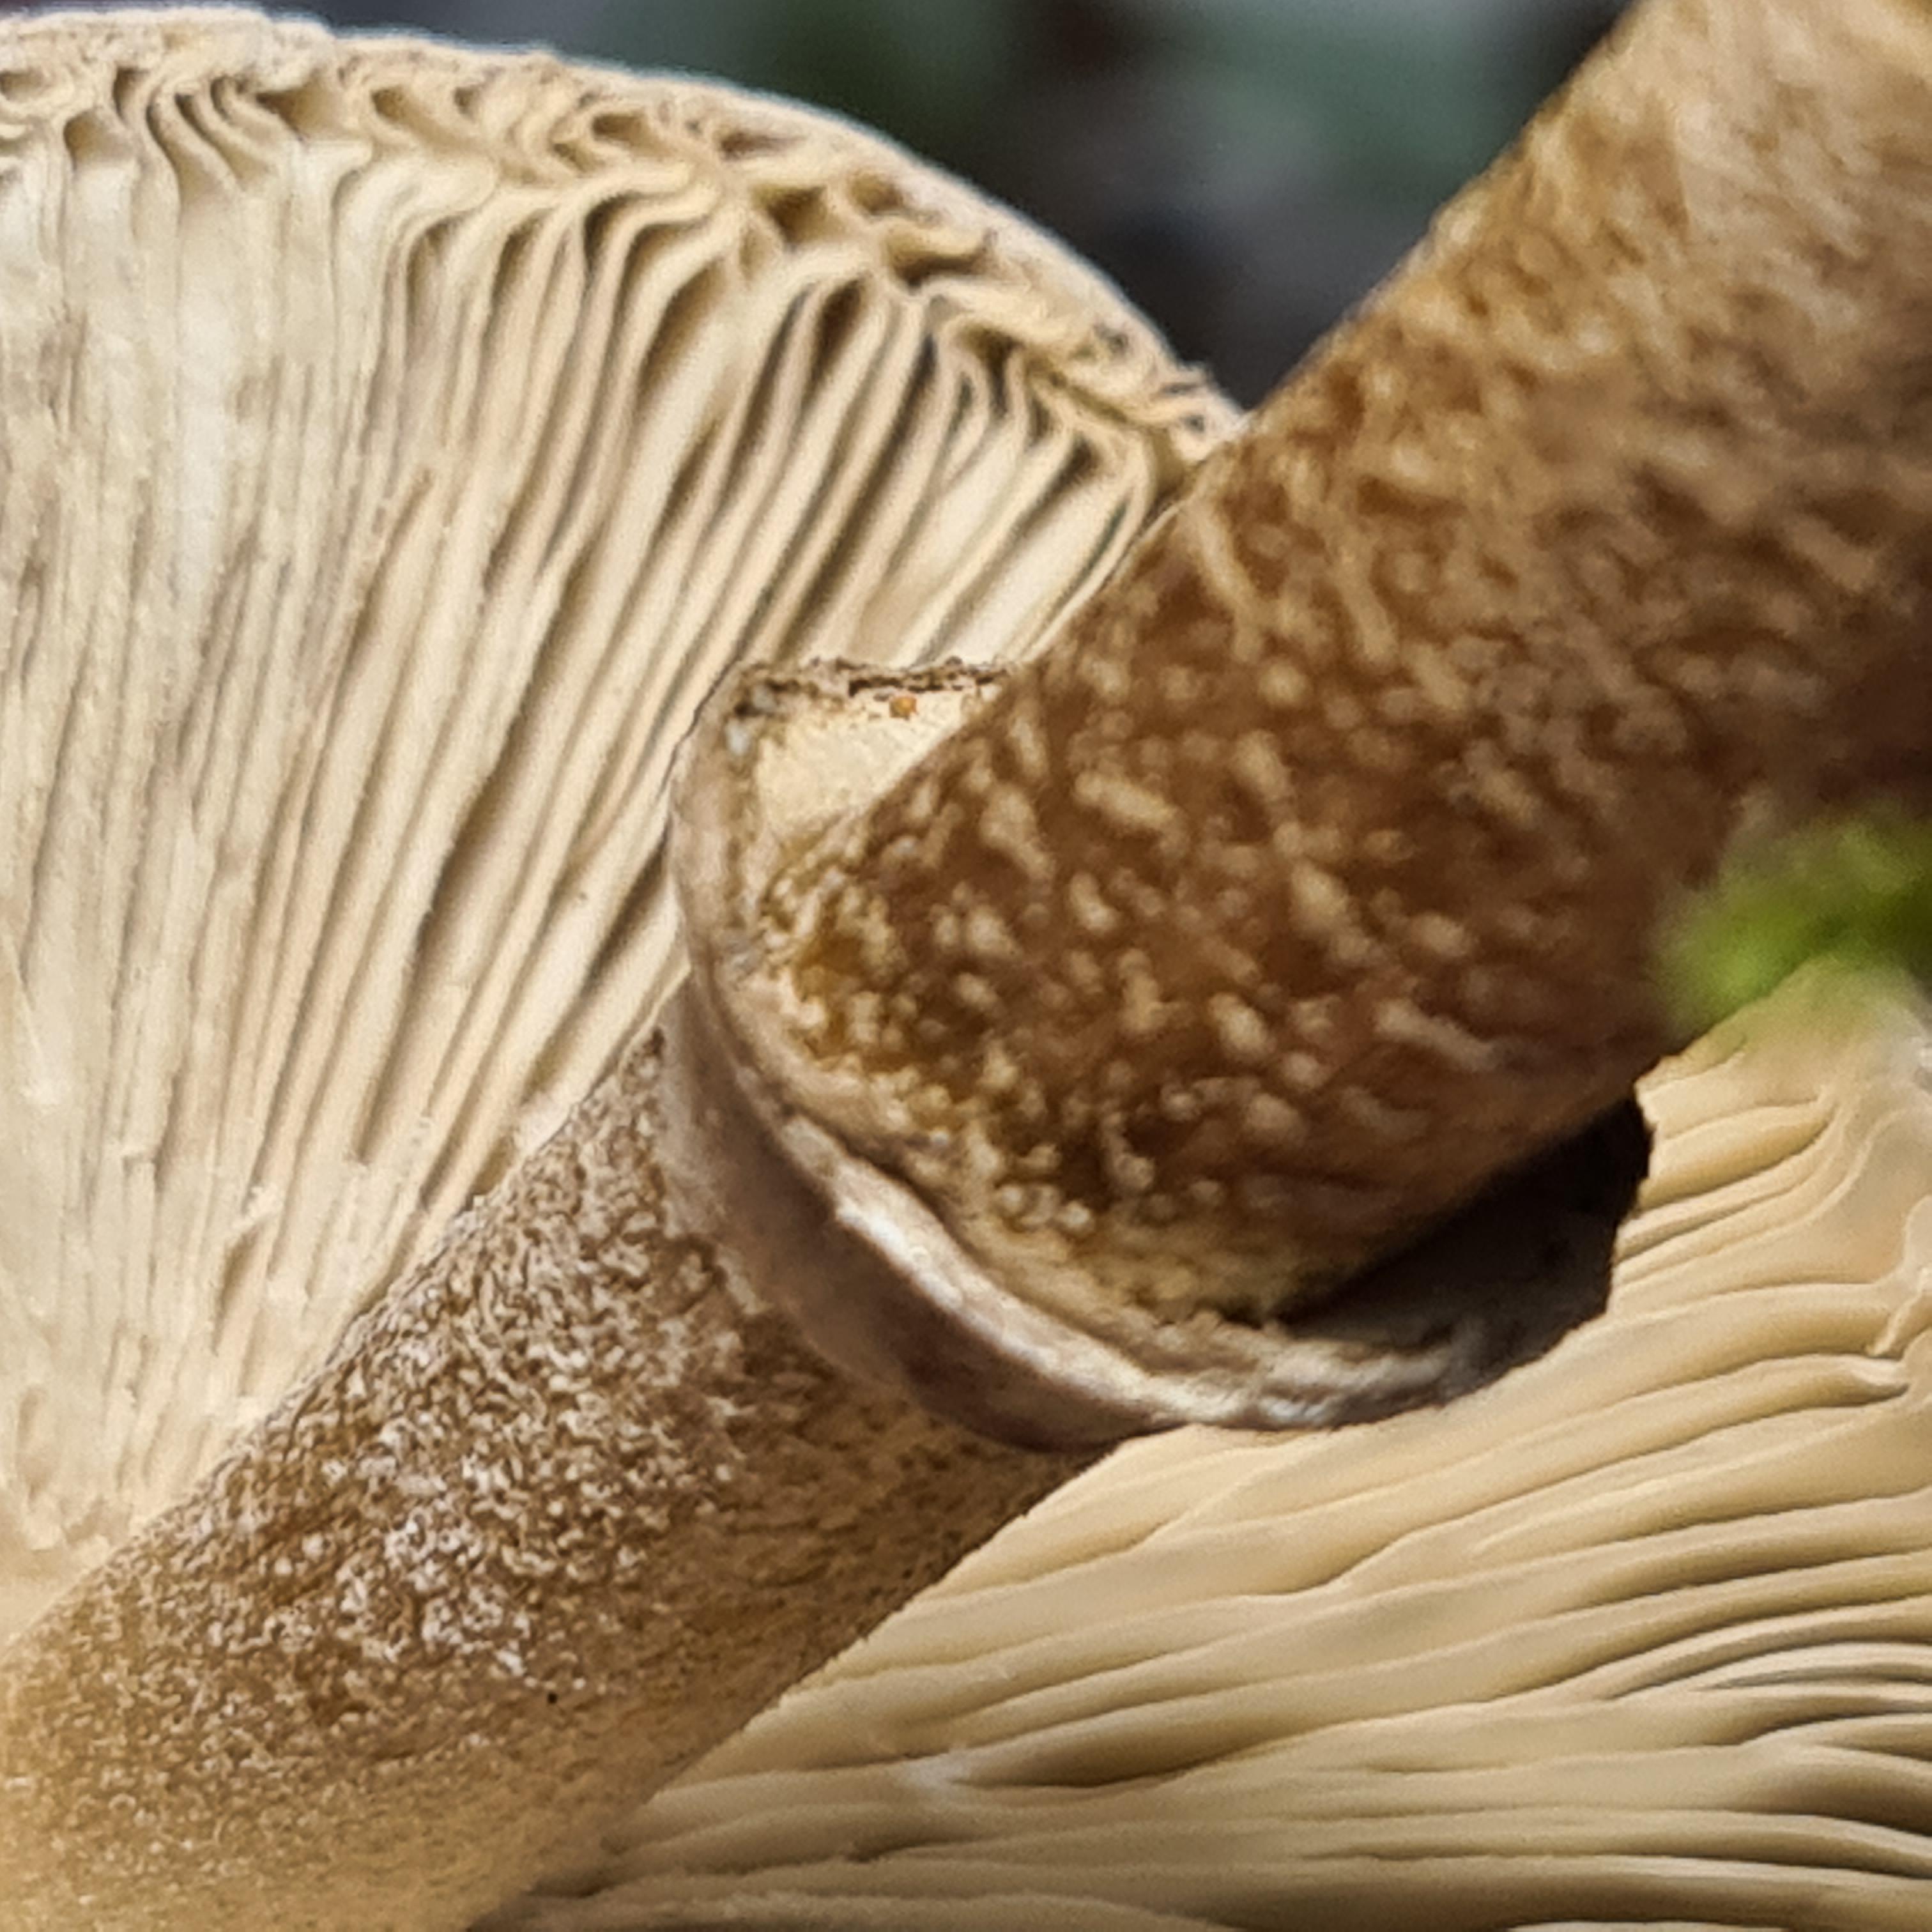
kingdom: Fungi
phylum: Basidiomycota
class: Agaricomycetes
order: Agaricales
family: Agaricaceae
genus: Macrolepiota
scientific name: Macrolepiota mastoidea
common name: puklet kæmpeparasolhat
